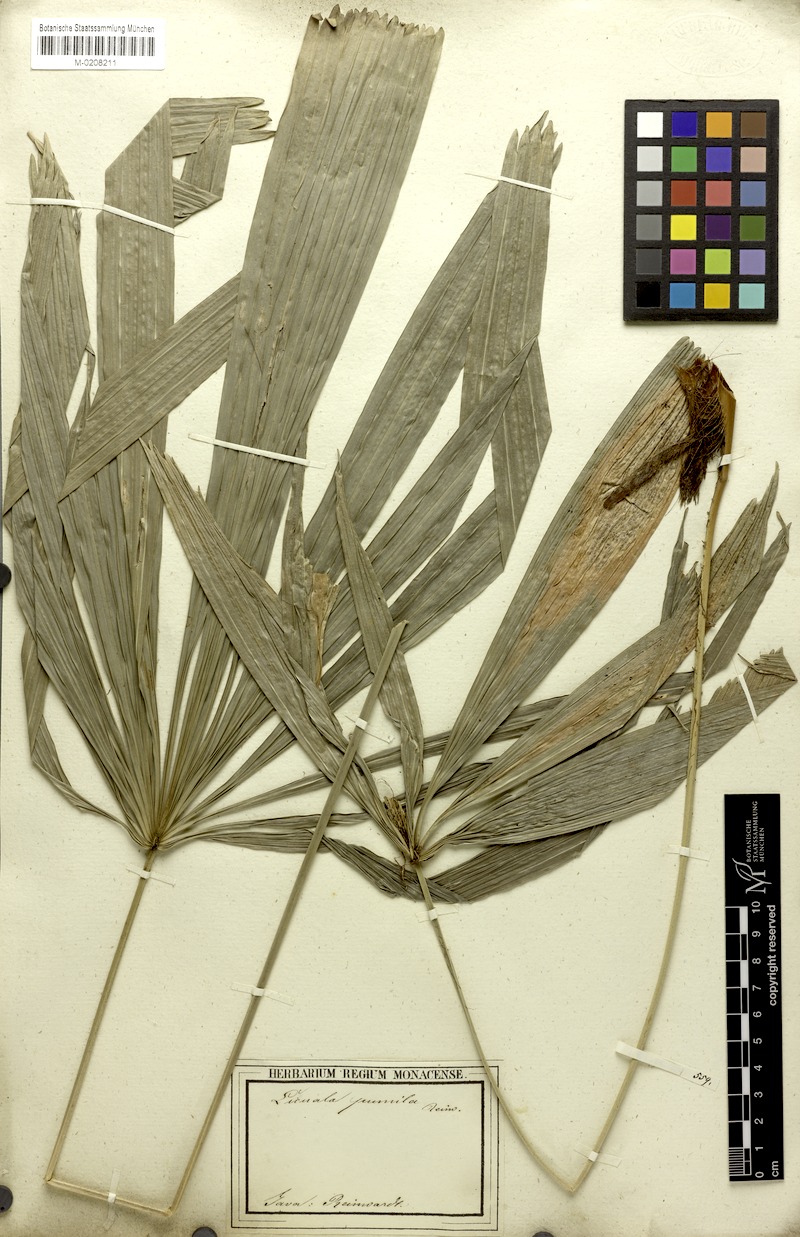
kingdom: Plantae
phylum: Tracheophyta
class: Liliopsida
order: Arecales
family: Arecaceae
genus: Licuala
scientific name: Licuala pumila
